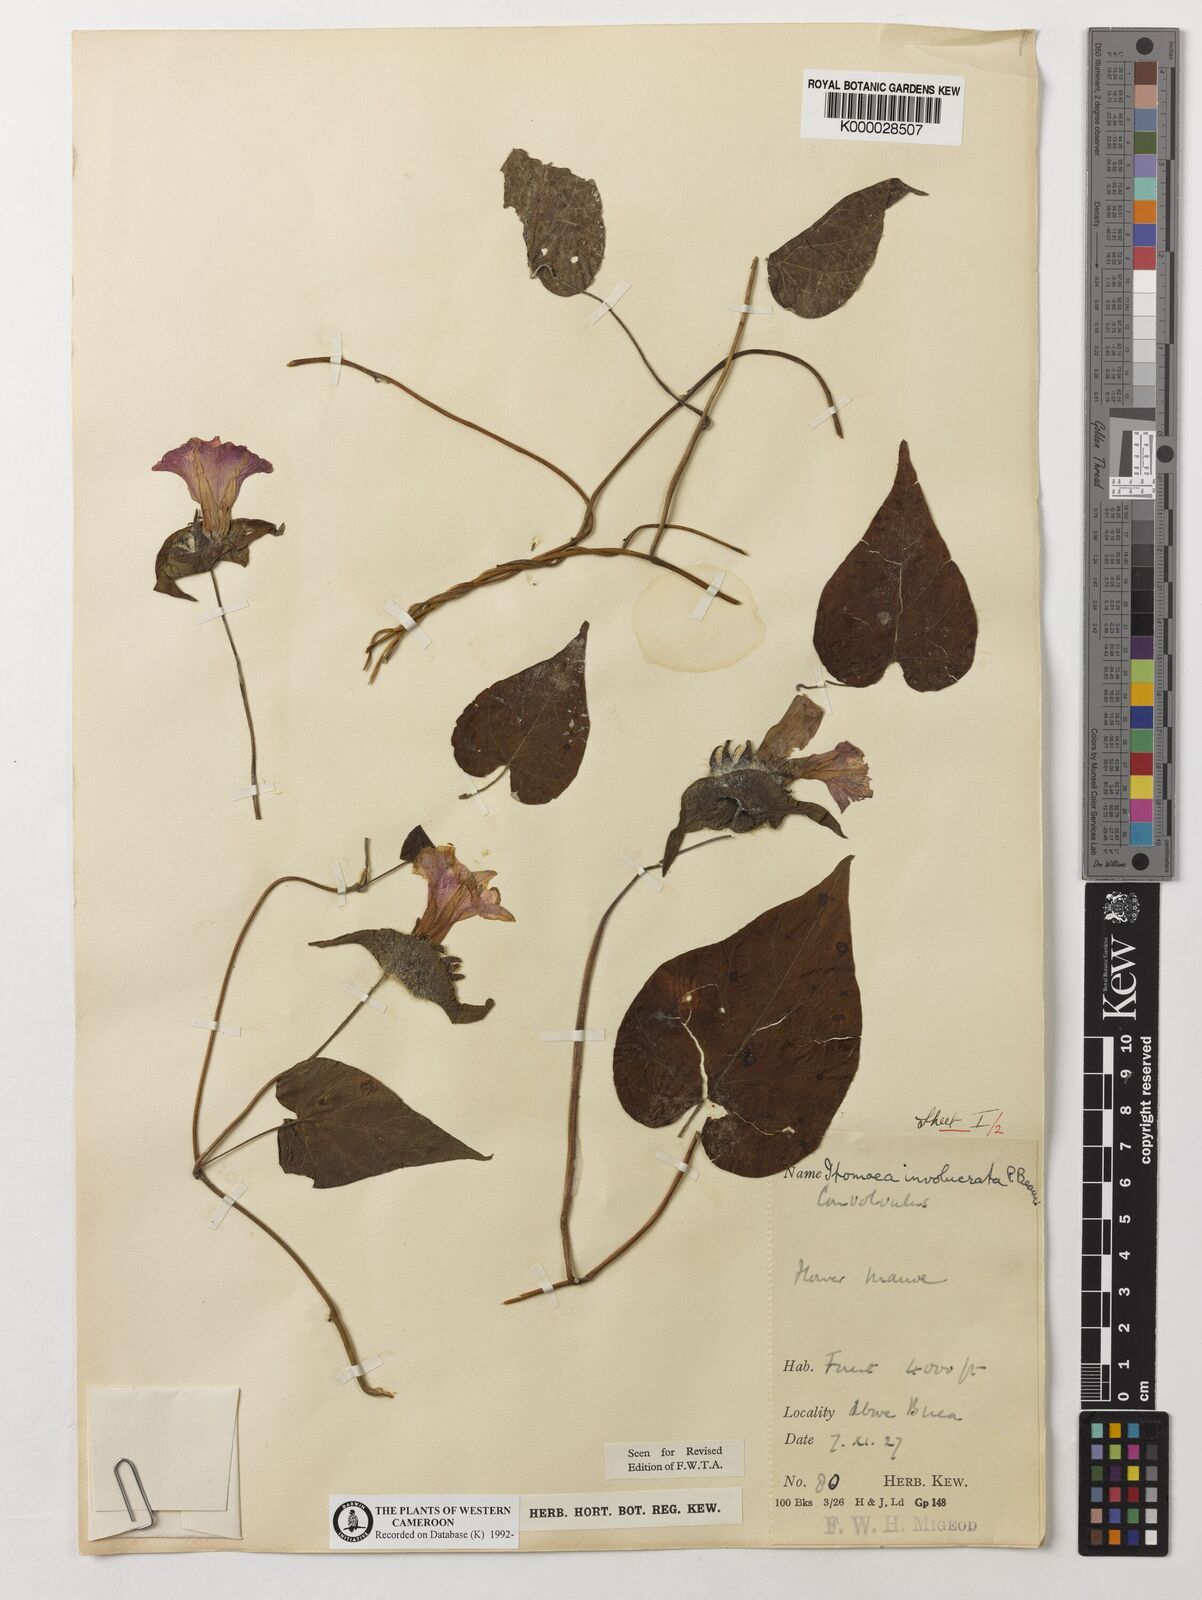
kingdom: Plantae
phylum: Tracheophyta
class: Magnoliopsida
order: Solanales
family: Convolvulaceae
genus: Ipomoea
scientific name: Ipomoea involucrata
